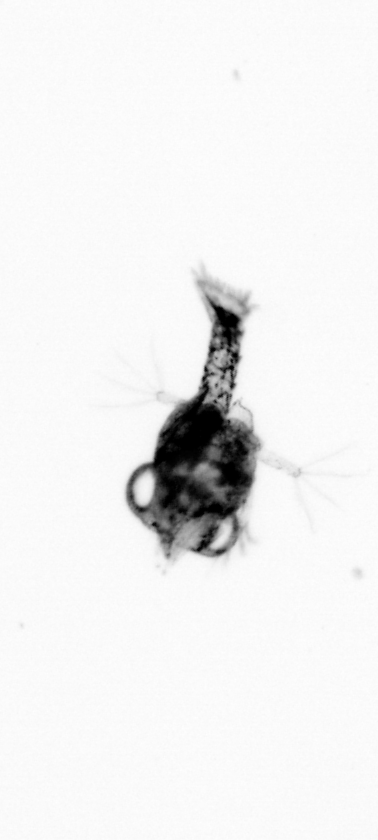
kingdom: Animalia
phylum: Arthropoda
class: Malacostraca
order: Decapoda
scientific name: Decapoda
